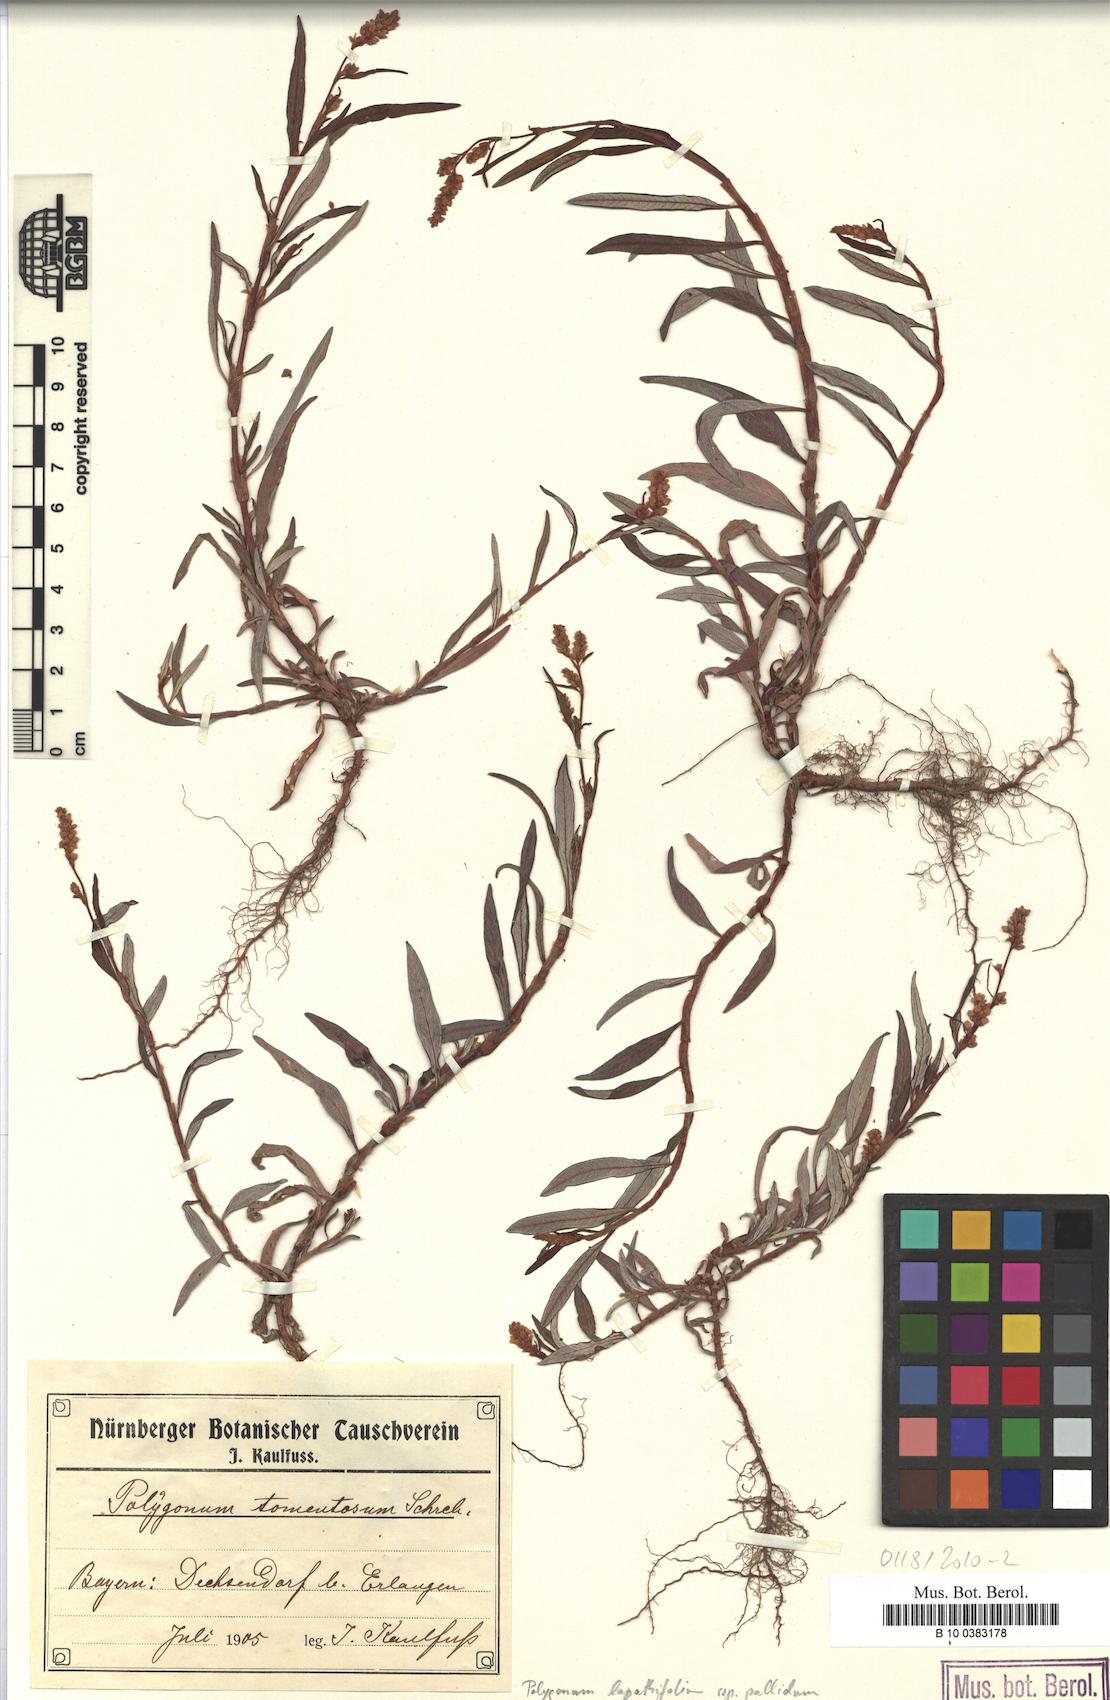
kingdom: Plantae
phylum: Tracheophyta
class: Magnoliopsida
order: Caryophyllales
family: Polygonaceae
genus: Persicaria
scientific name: Persicaria lapathifolia
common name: Curlytop knotweed
